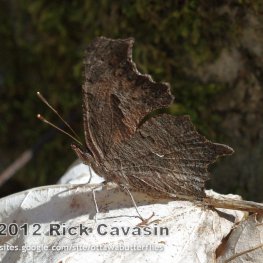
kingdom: Animalia
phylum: Arthropoda
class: Insecta
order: Lepidoptera
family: Nymphalidae
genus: Polygonia
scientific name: Polygonia progne
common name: Gray Comma
